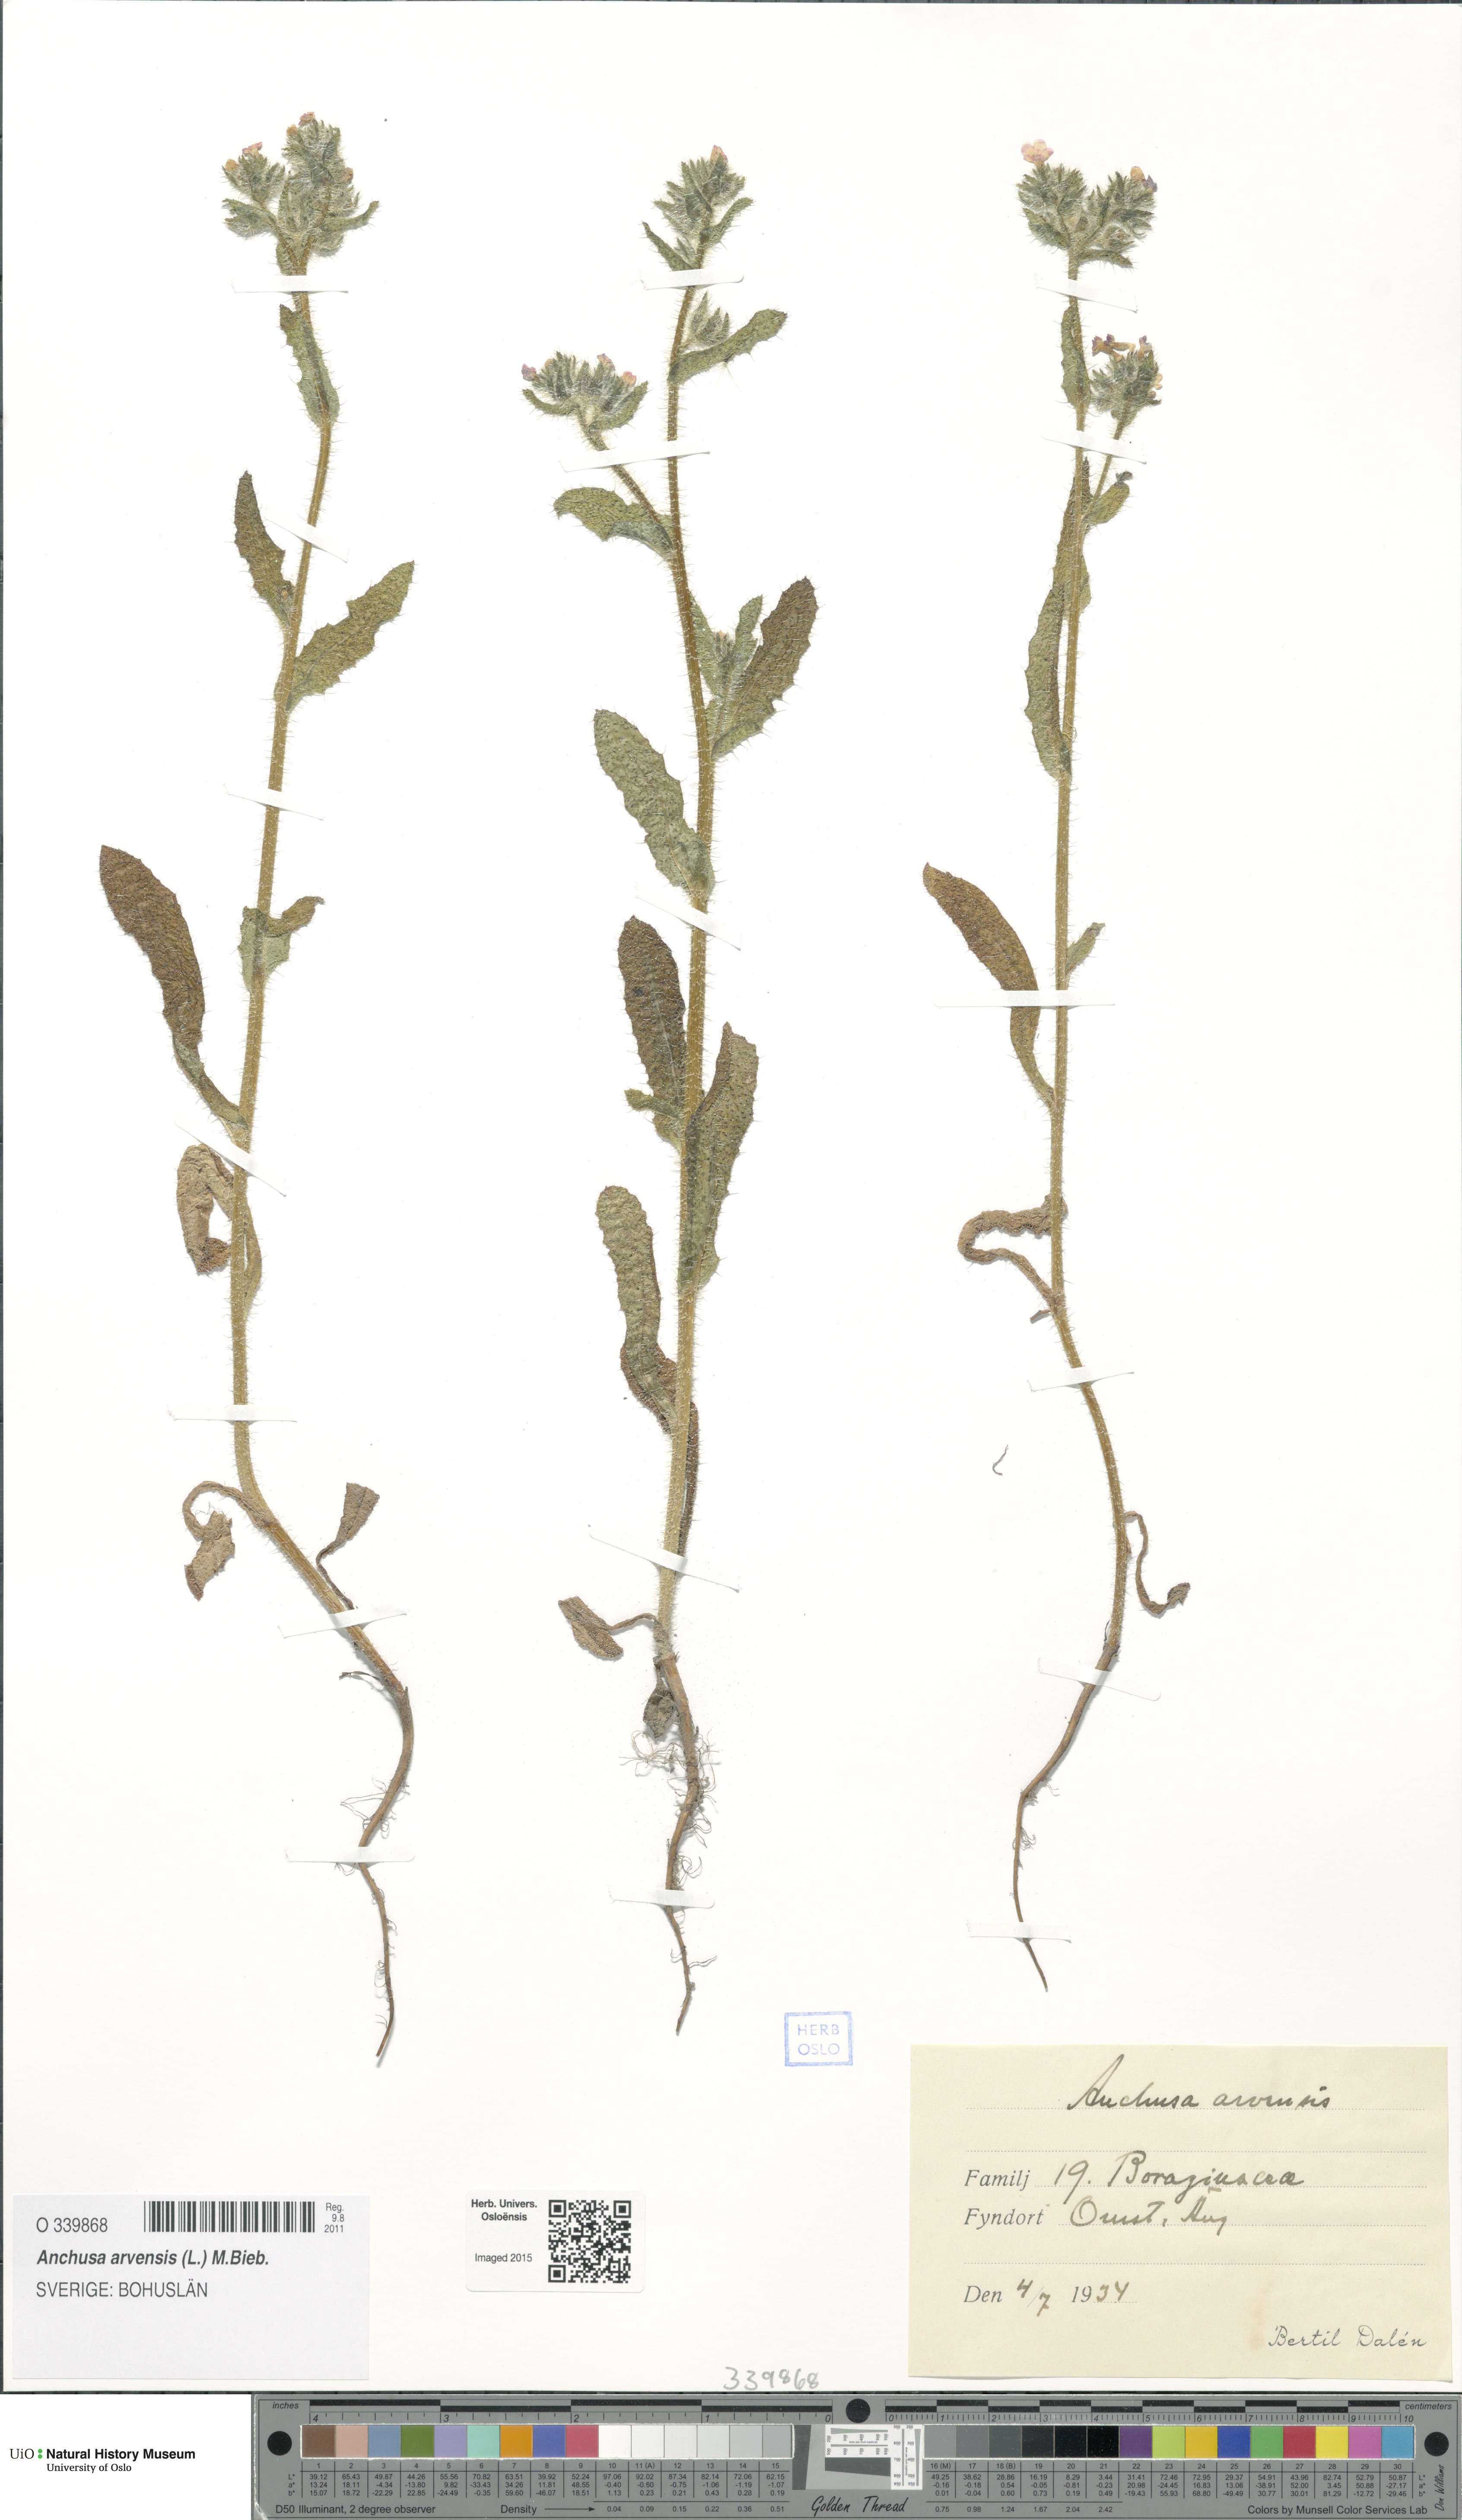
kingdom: Plantae
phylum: Tracheophyta
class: Magnoliopsida
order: Boraginales
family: Boraginaceae
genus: Lycopsis
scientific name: Lycopsis arvensis
